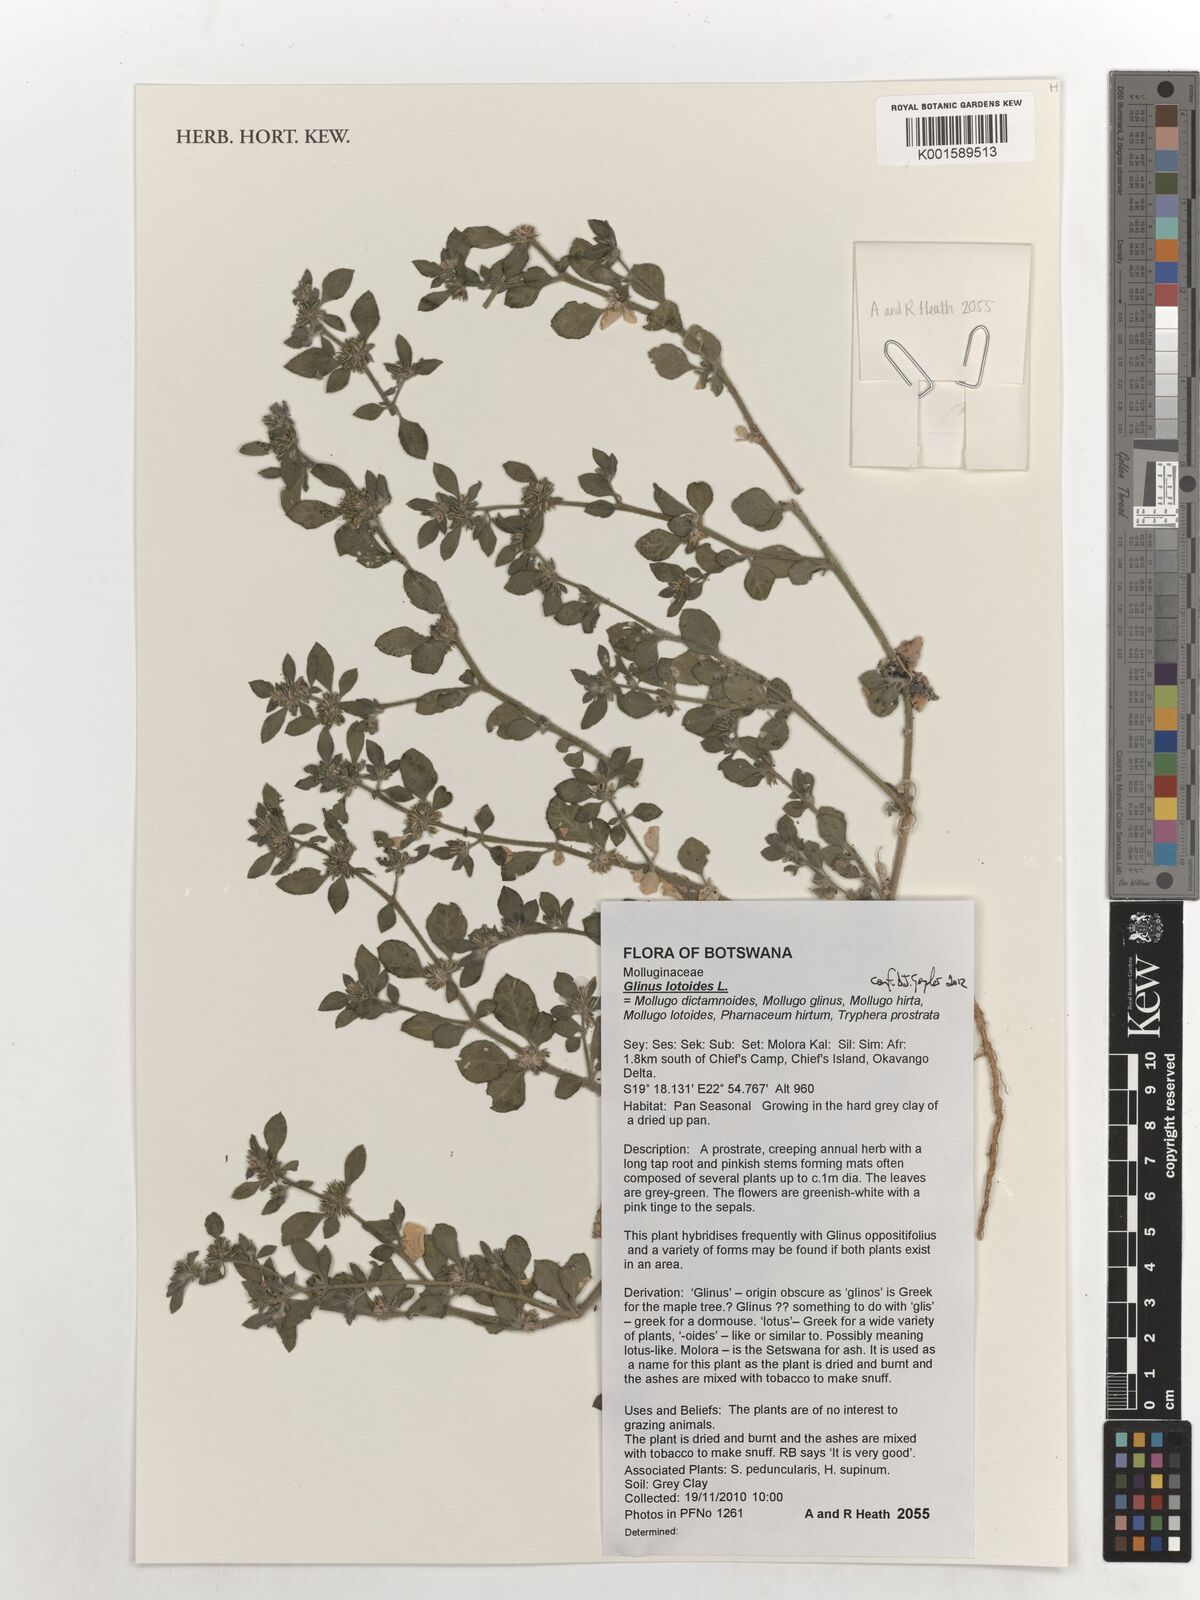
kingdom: Plantae
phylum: Tracheophyta
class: Magnoliopsida
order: Caryophyllales
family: Molluginaceae
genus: Glinus
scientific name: Glinus lotoides
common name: Lotus sweetjuice
